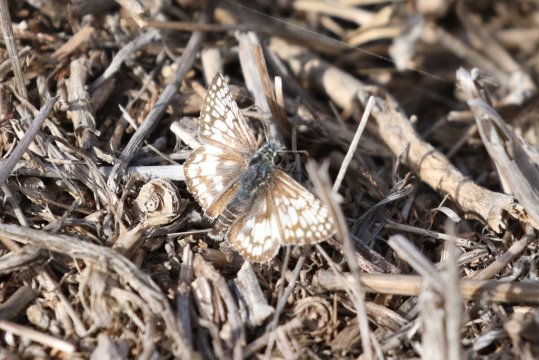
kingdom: Animalia
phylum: Arthropoda
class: Insecta
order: Lepidoptera
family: Hesperiidae
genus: Pyrgus
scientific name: Pyrgus communis
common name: White Checkered-Skipper
